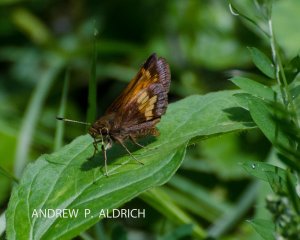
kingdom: Animalia
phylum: Arthropoda
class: Insecta
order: Lepidoptera
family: Hesperiidae
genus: Lon
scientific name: Lon hobomok
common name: Hobomok Skipper
